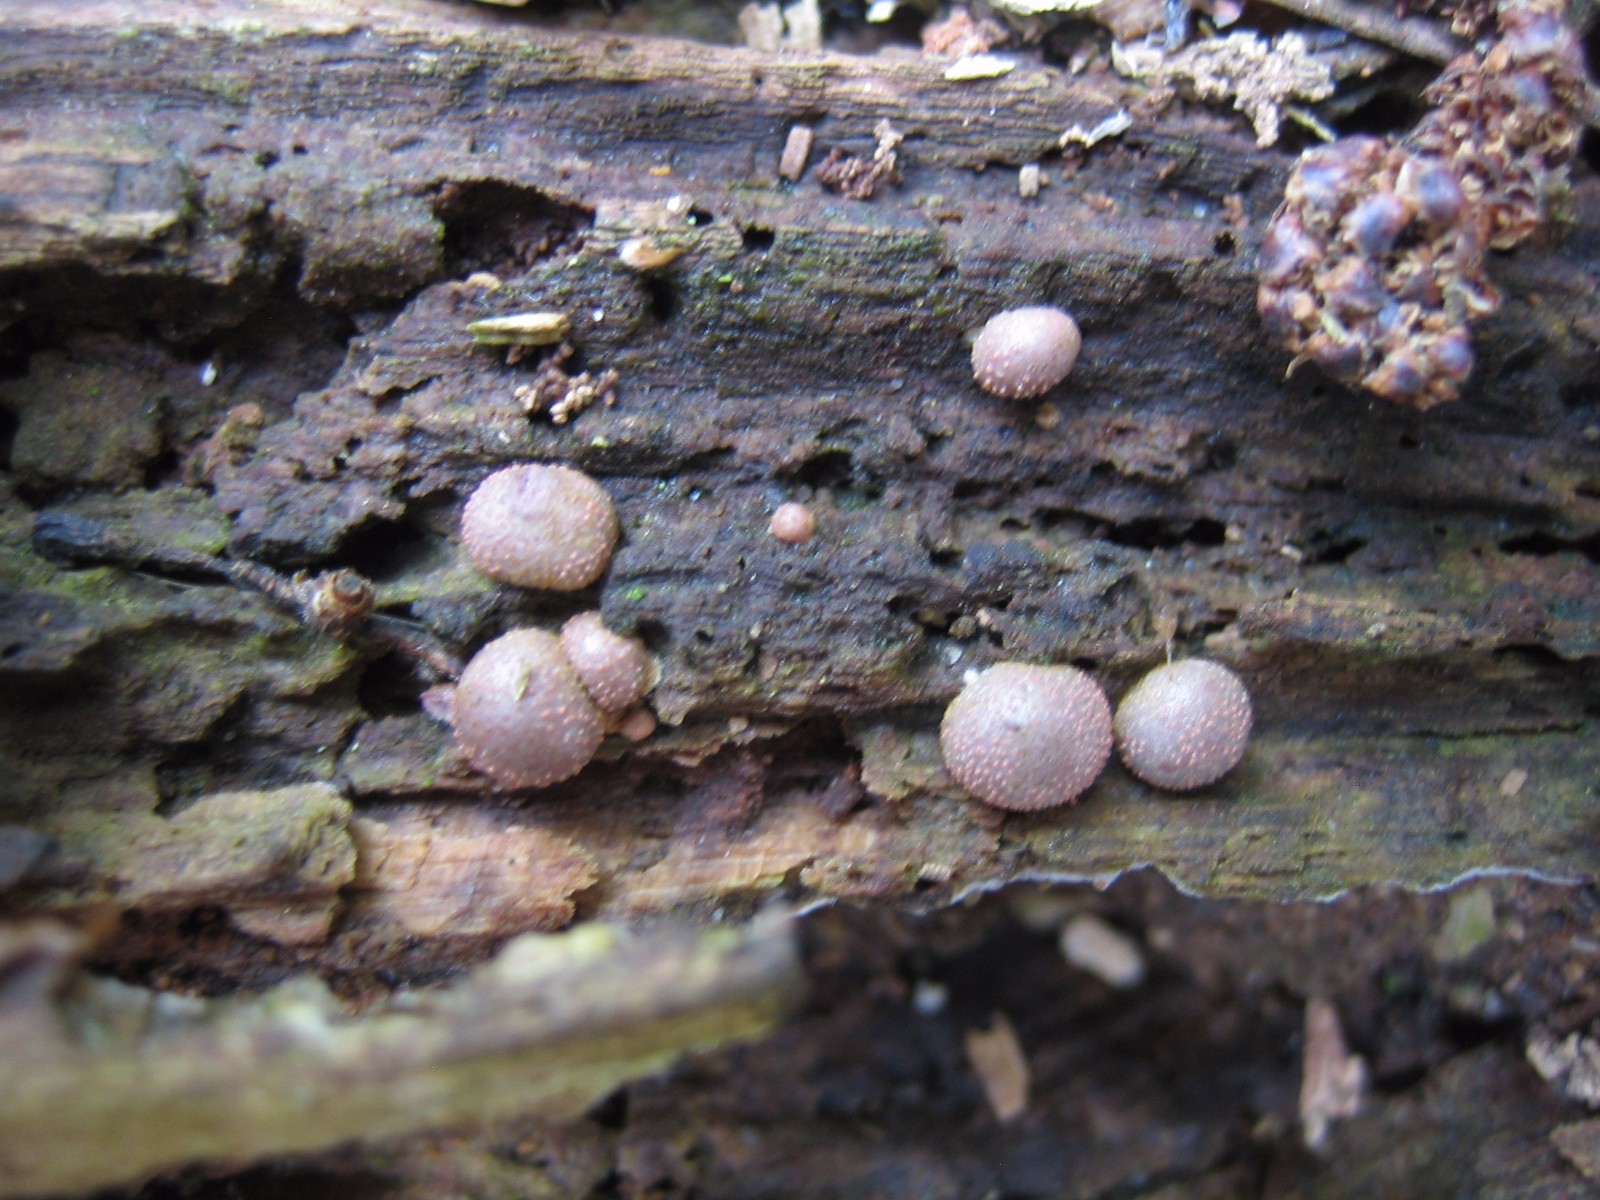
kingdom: Protozoa
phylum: Mycetozoa
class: Myxomycetes
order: Cribrariales
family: Tubiferaceae
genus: Lycogala
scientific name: Lycogala epidendrum
